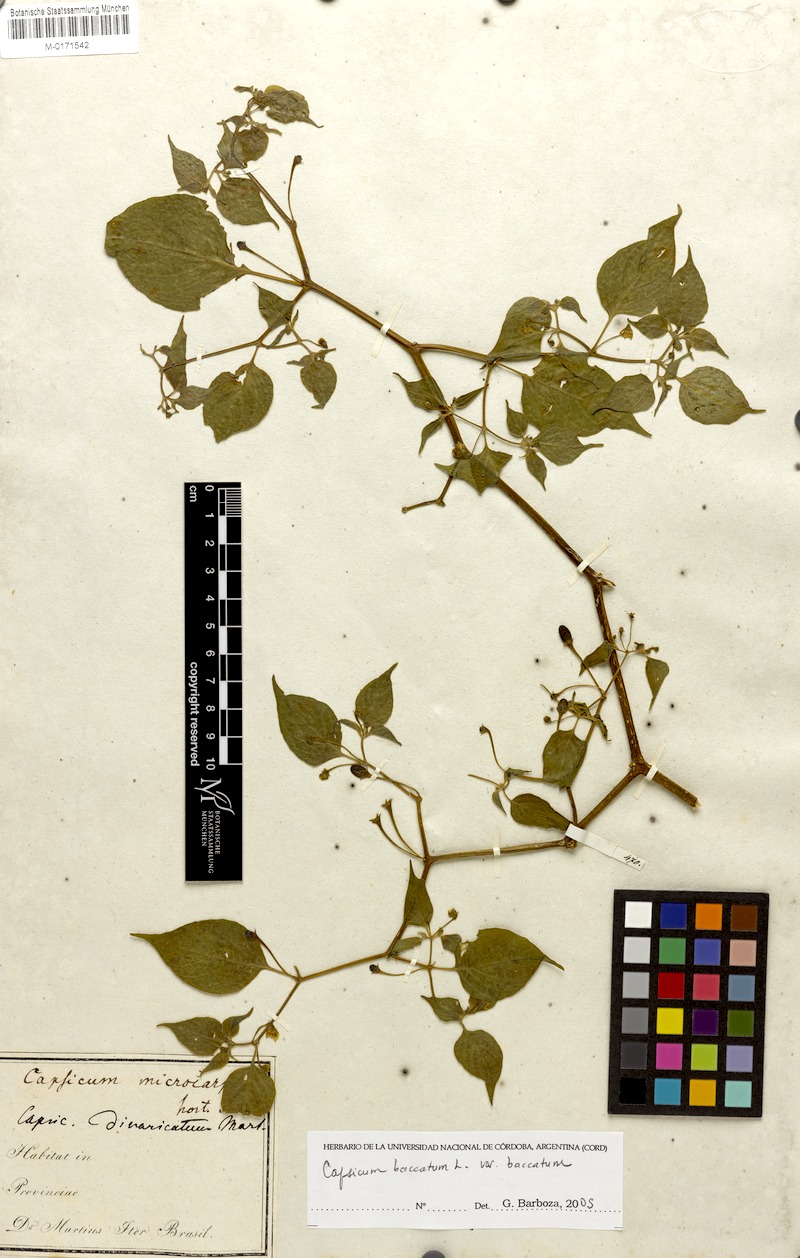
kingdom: Plantae
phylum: Tracheophyta
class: Magnoliopsida
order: Solanales
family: Solanaceae
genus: Capsicum
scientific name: Capsicum baccatum
